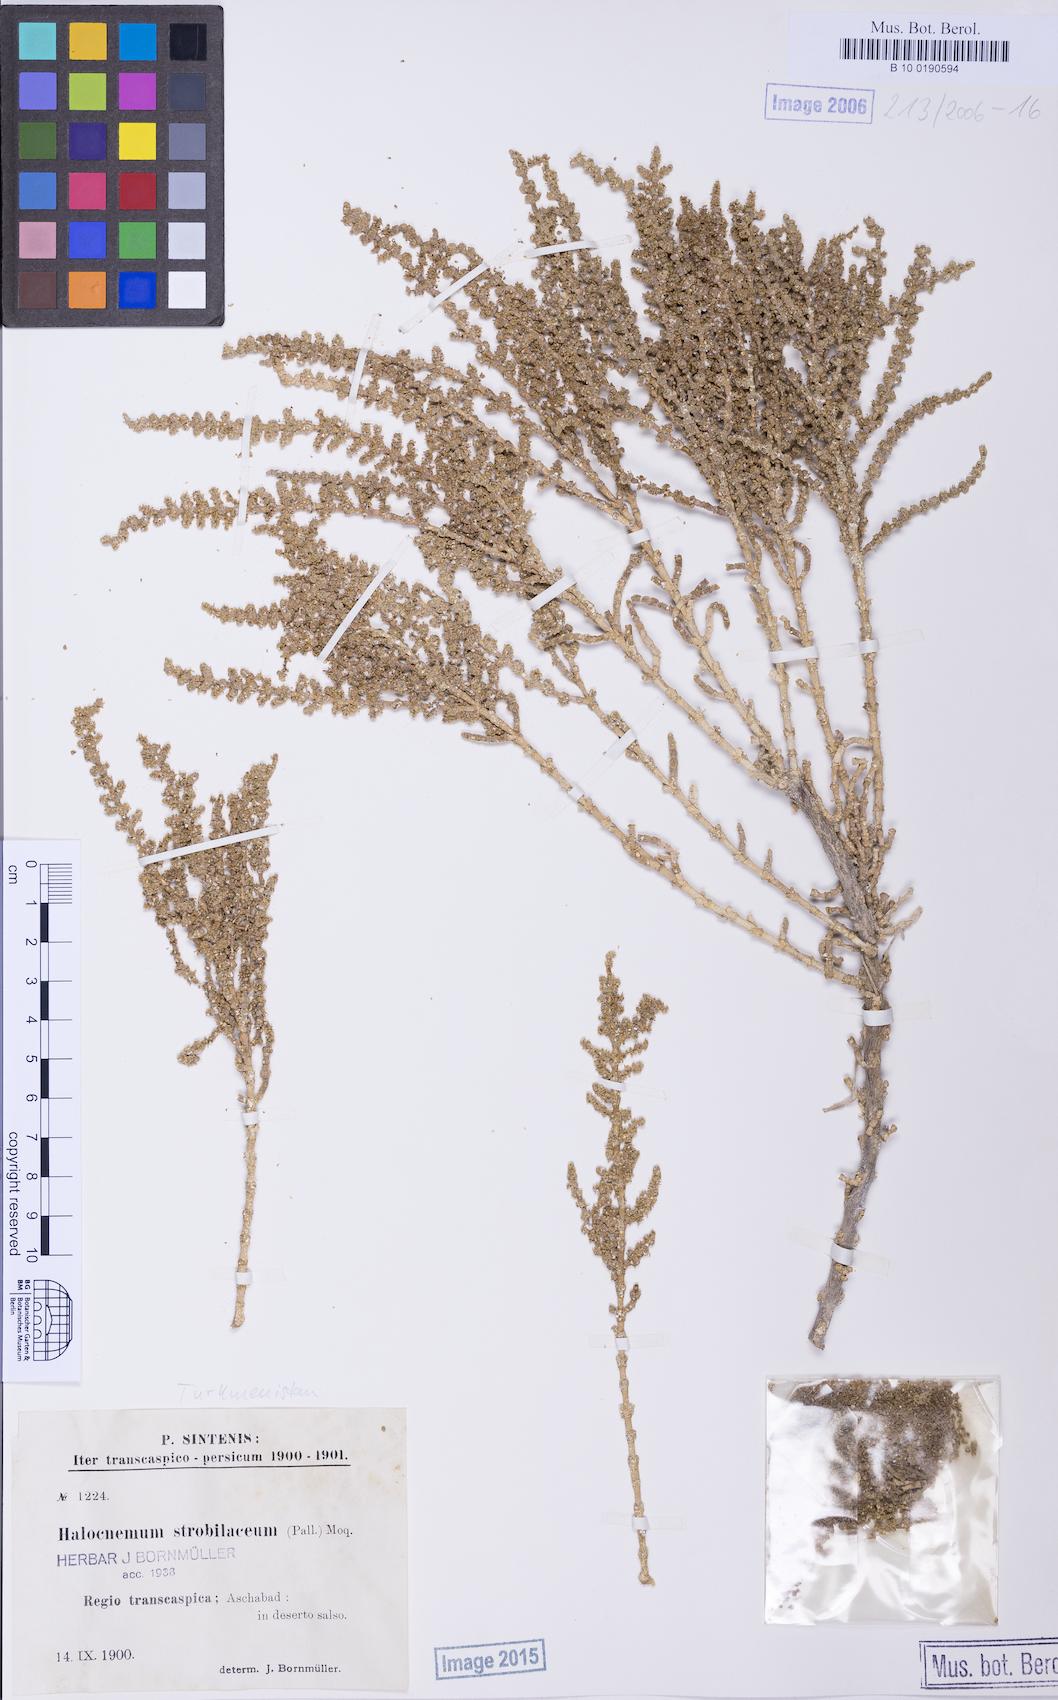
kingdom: Plantae
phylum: Tracheophyta
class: Magnoliopsida
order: Caryophyllales
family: Amaranthaceae
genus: Halocnemum
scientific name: Halocnemum strobilaceum
